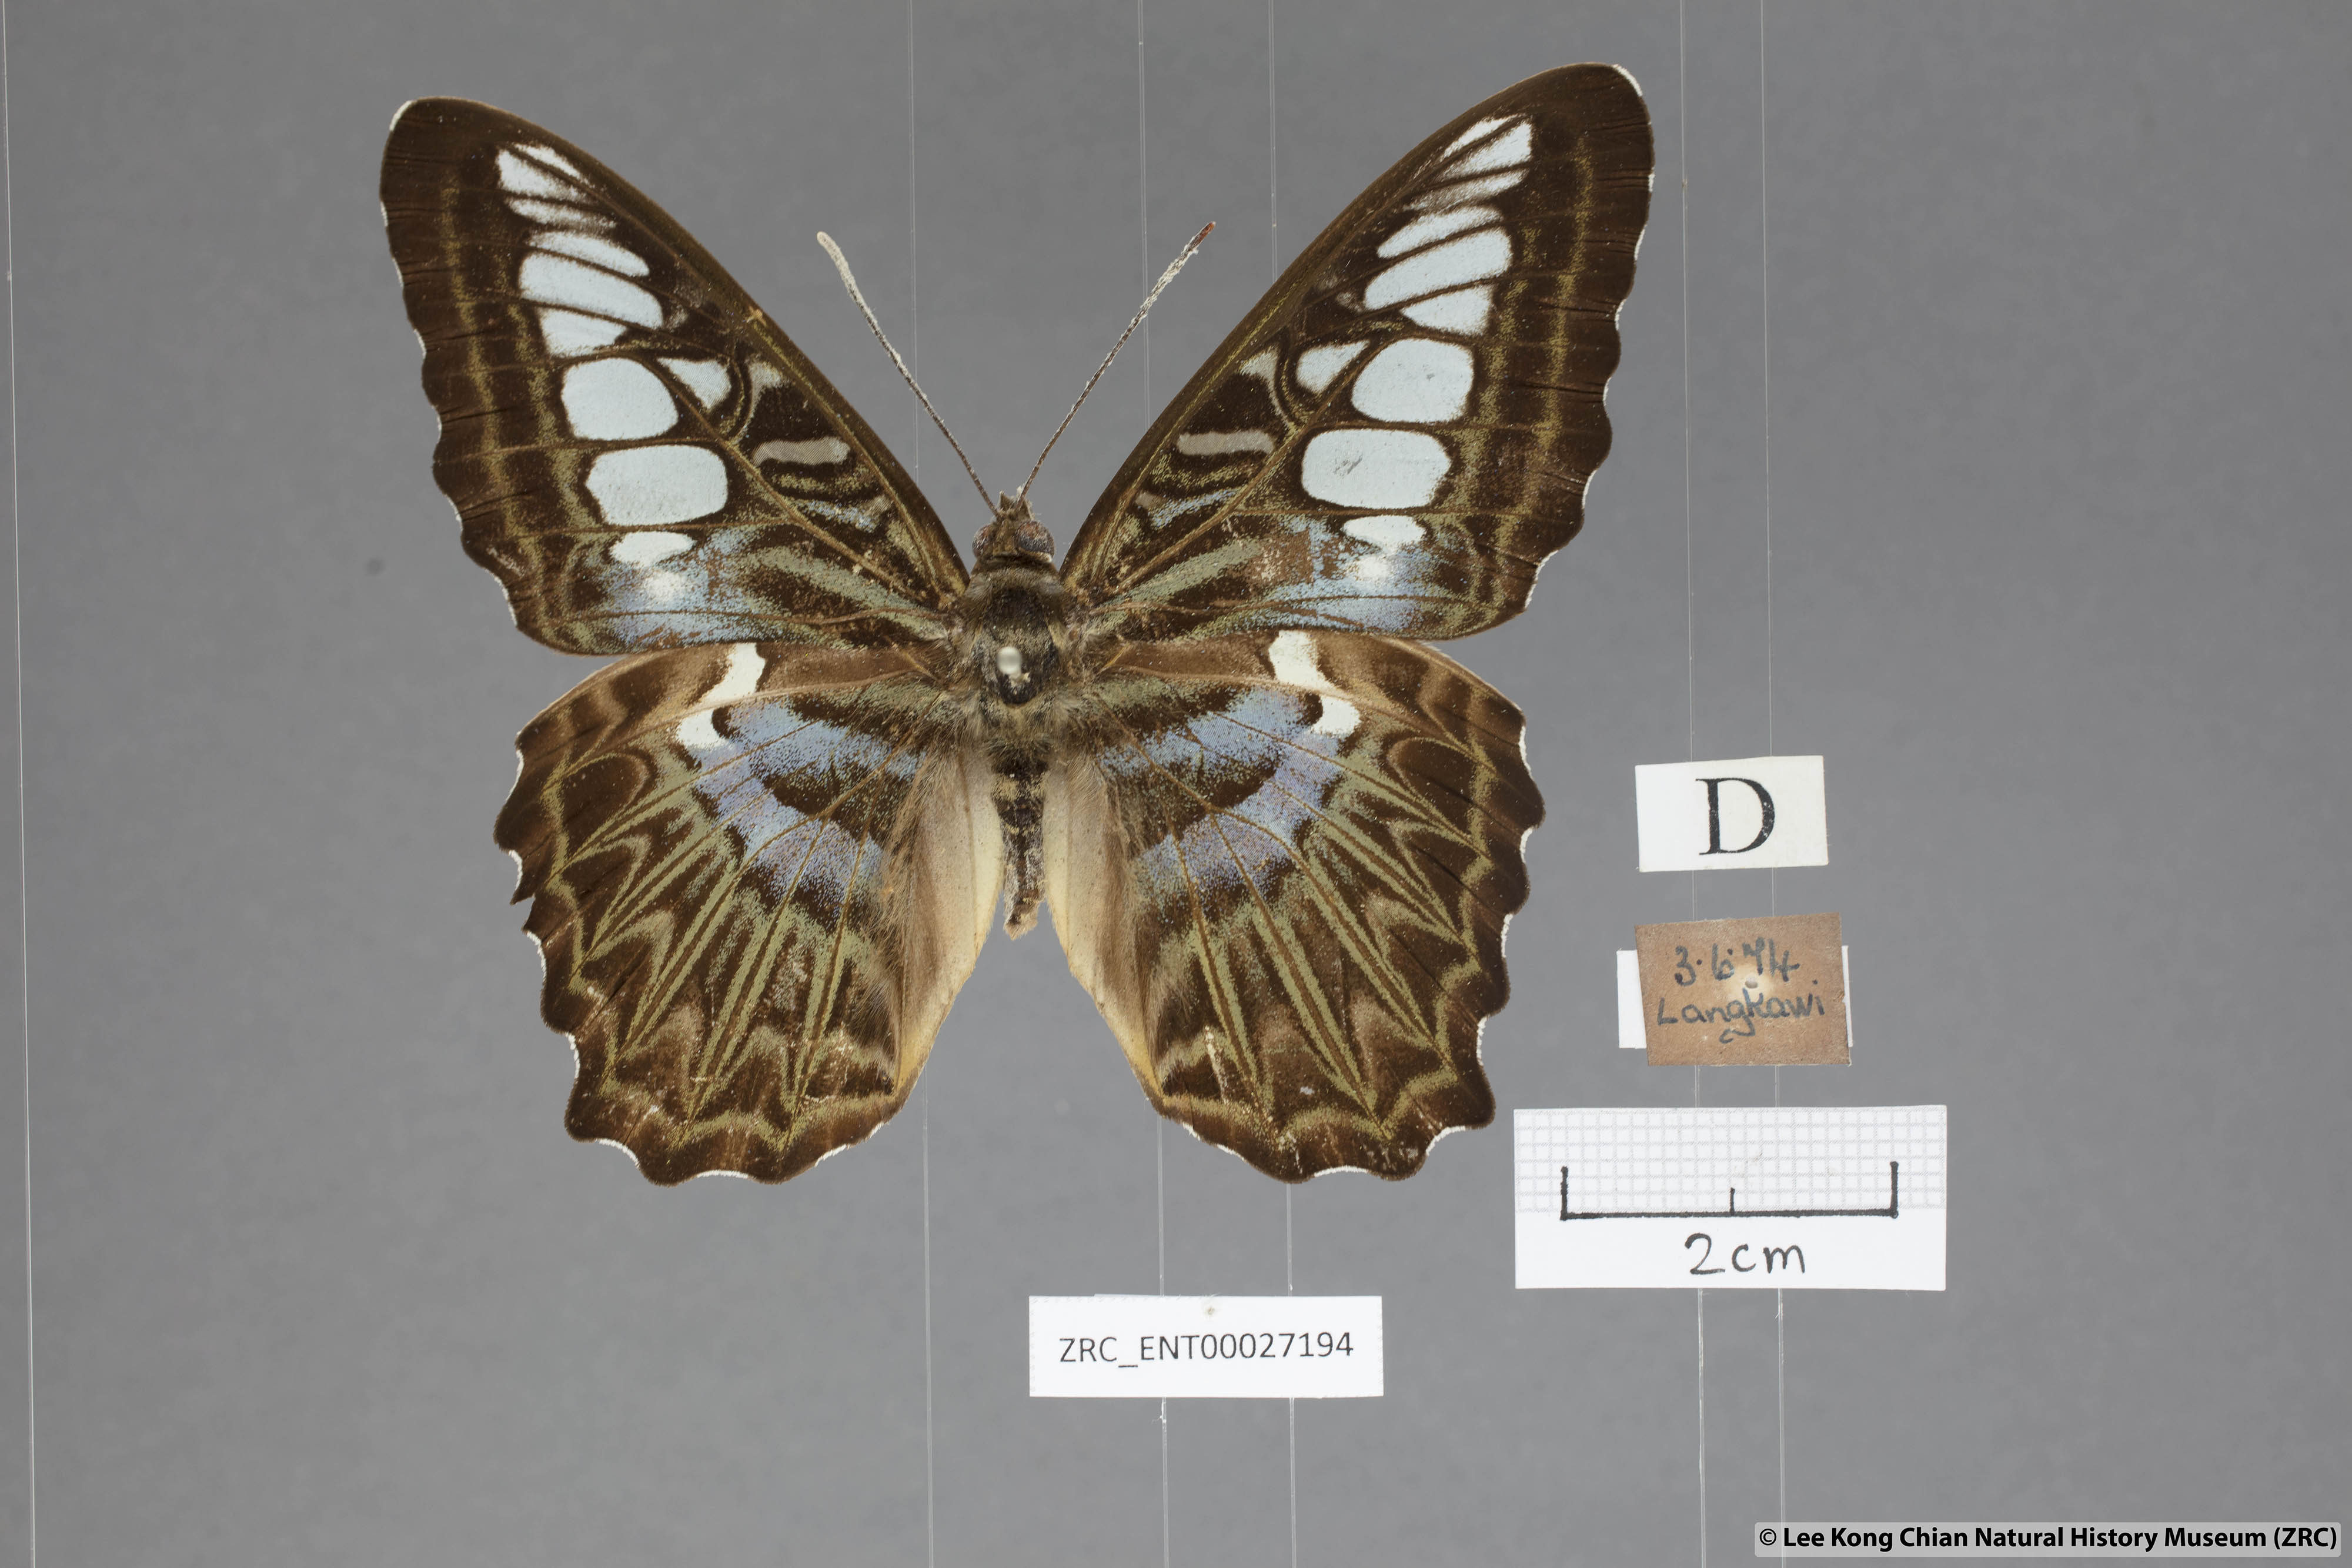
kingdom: Animalia
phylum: Arthropoda
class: Insecta
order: Lepidoptera
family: Nymphalidae
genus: Kallima
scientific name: Kallima sylvia
